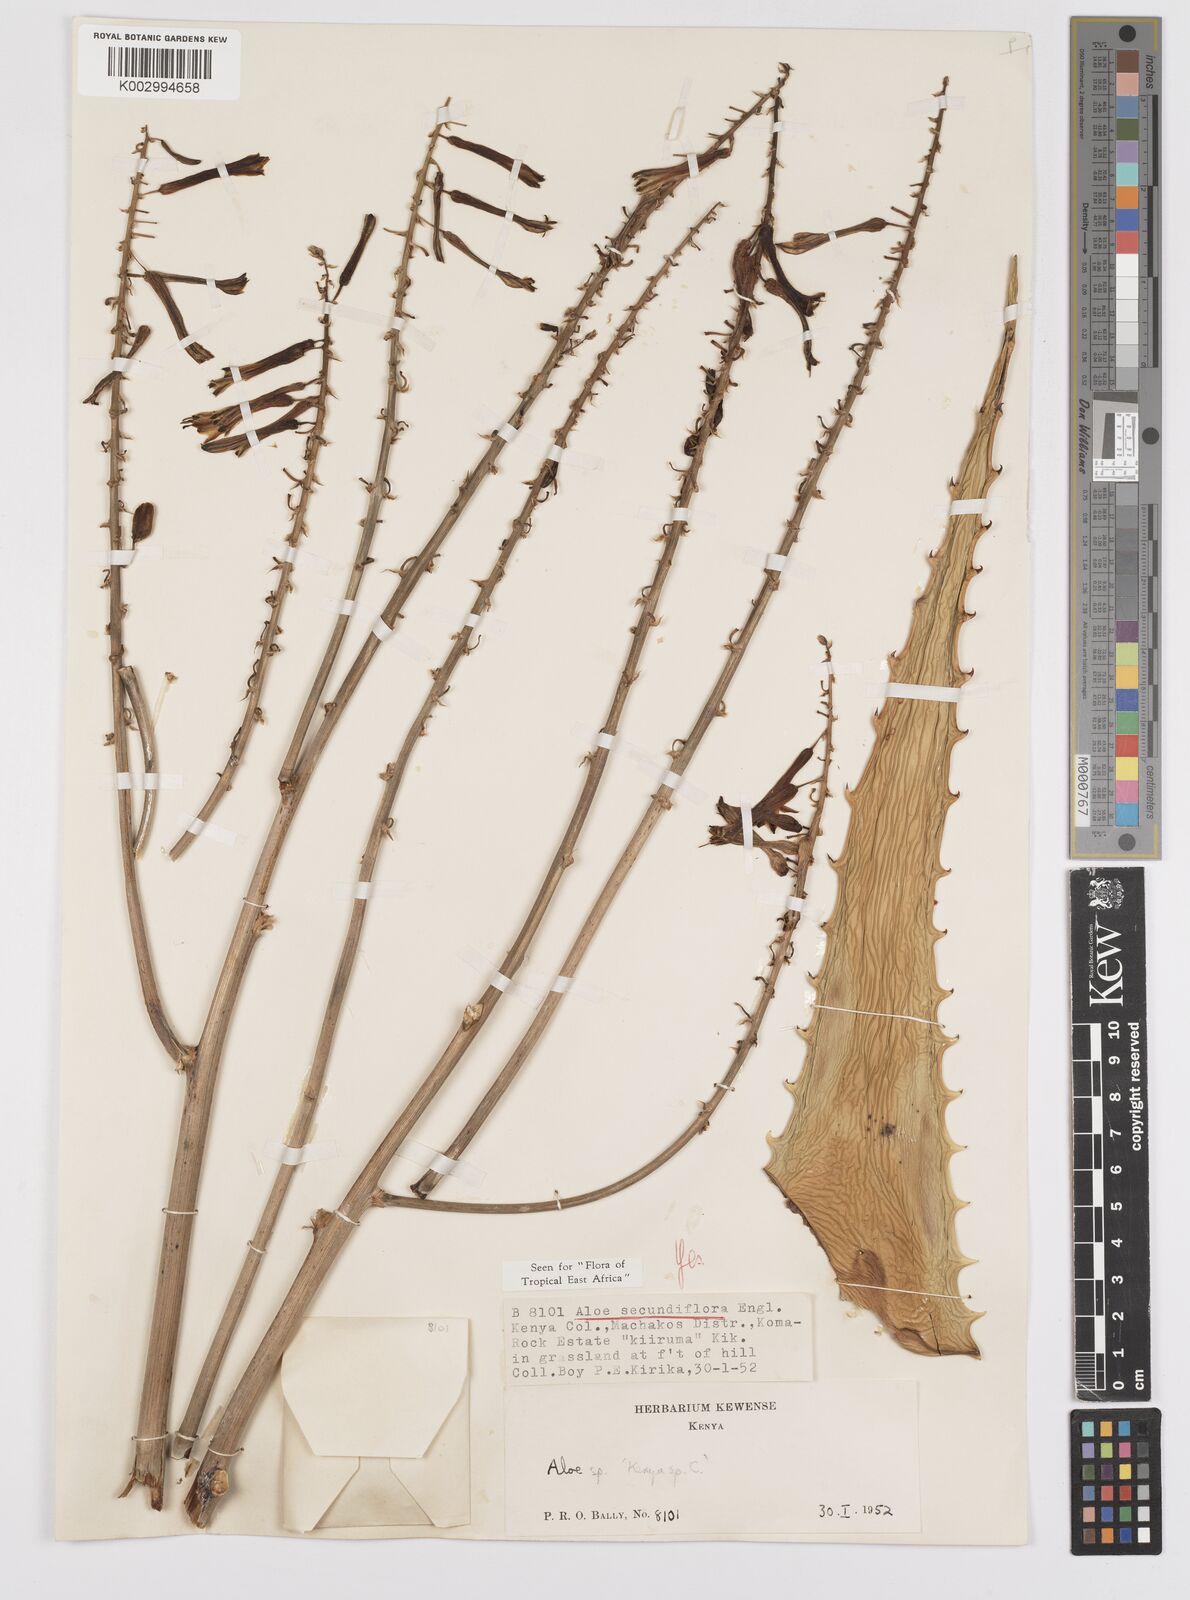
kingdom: Plantae
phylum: Tracheophyta
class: Liliopsida
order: Asparagales
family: Asphodelaceae
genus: Aloe
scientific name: Aloe secundiflora
